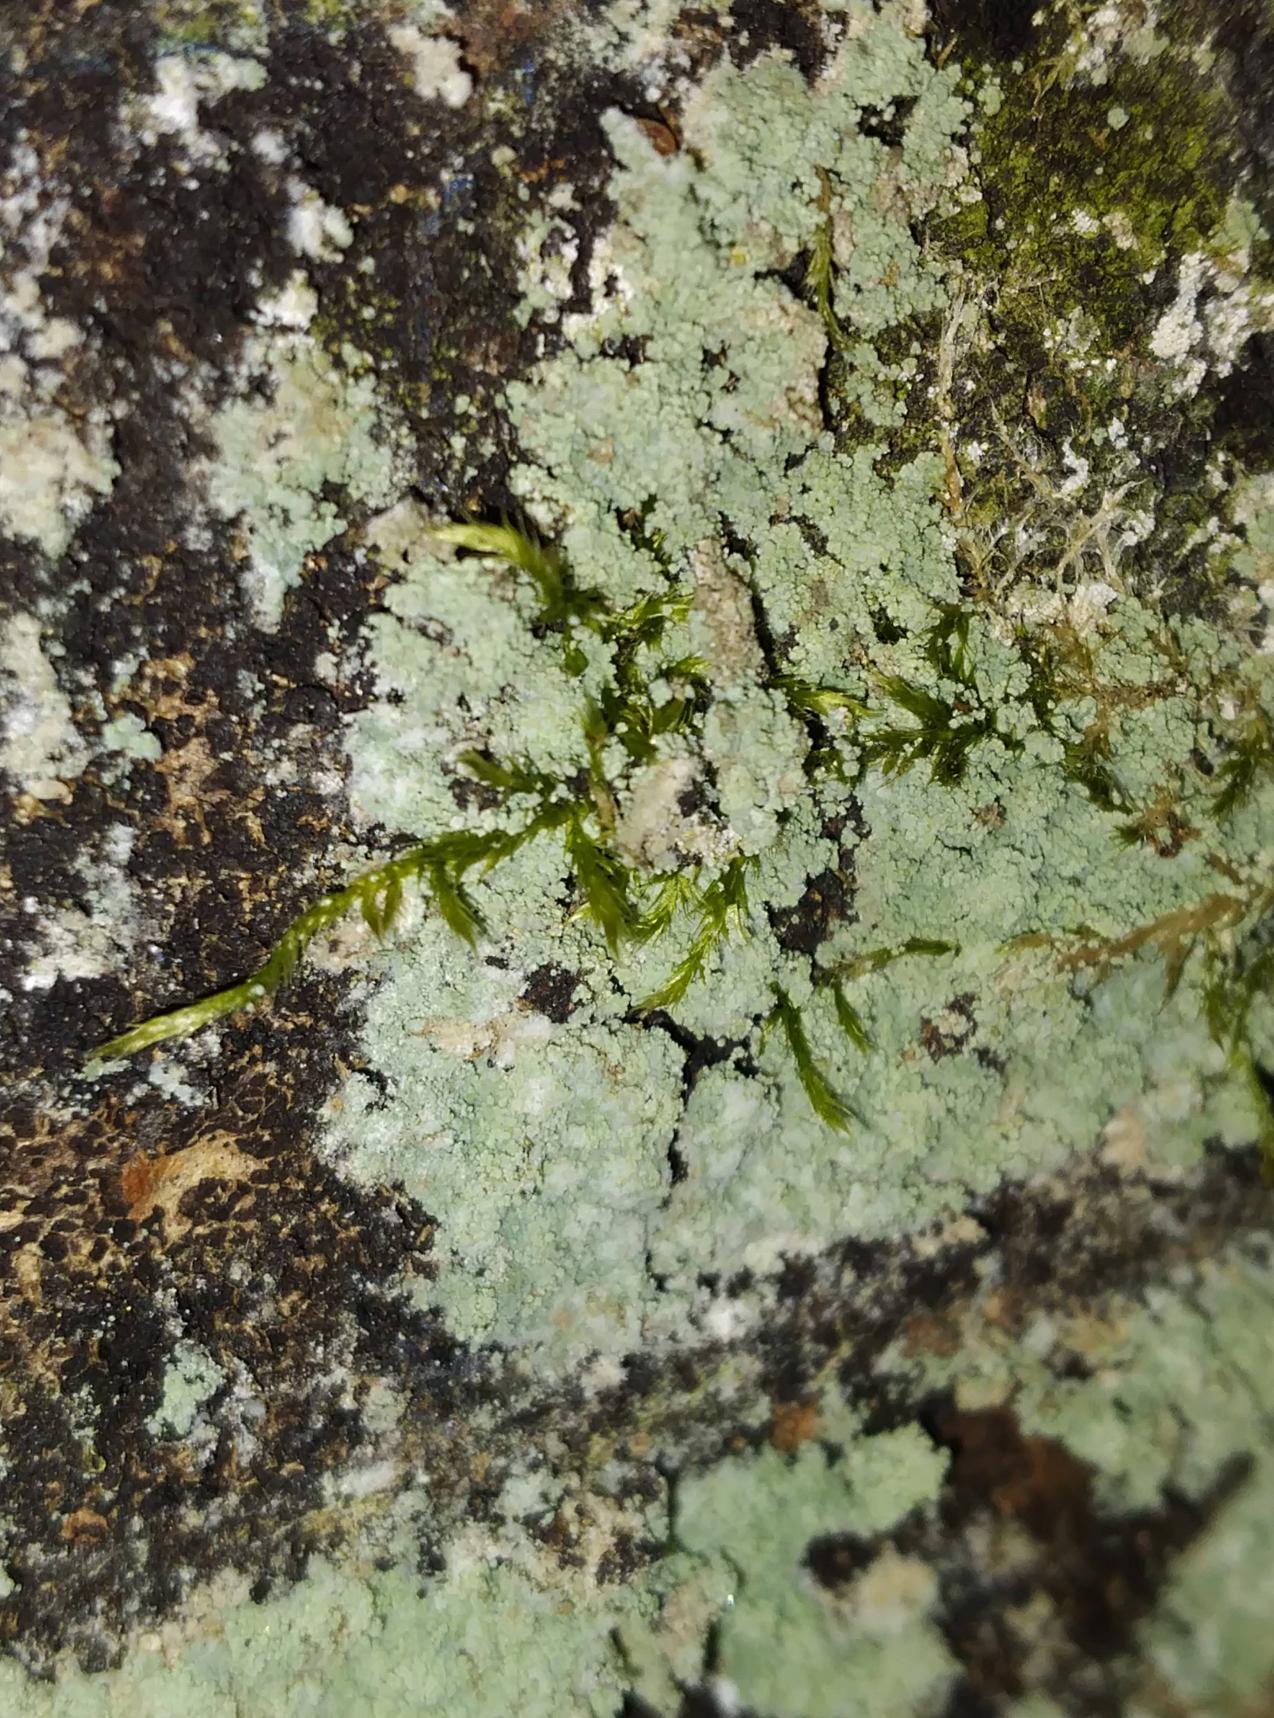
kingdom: Fungi
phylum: Ascomycota
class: Lecanoromycetes
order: Lecanorales
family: Stereocaulaceae
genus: Lepraria
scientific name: Lepraria lobificans
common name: Grøn støvlav
